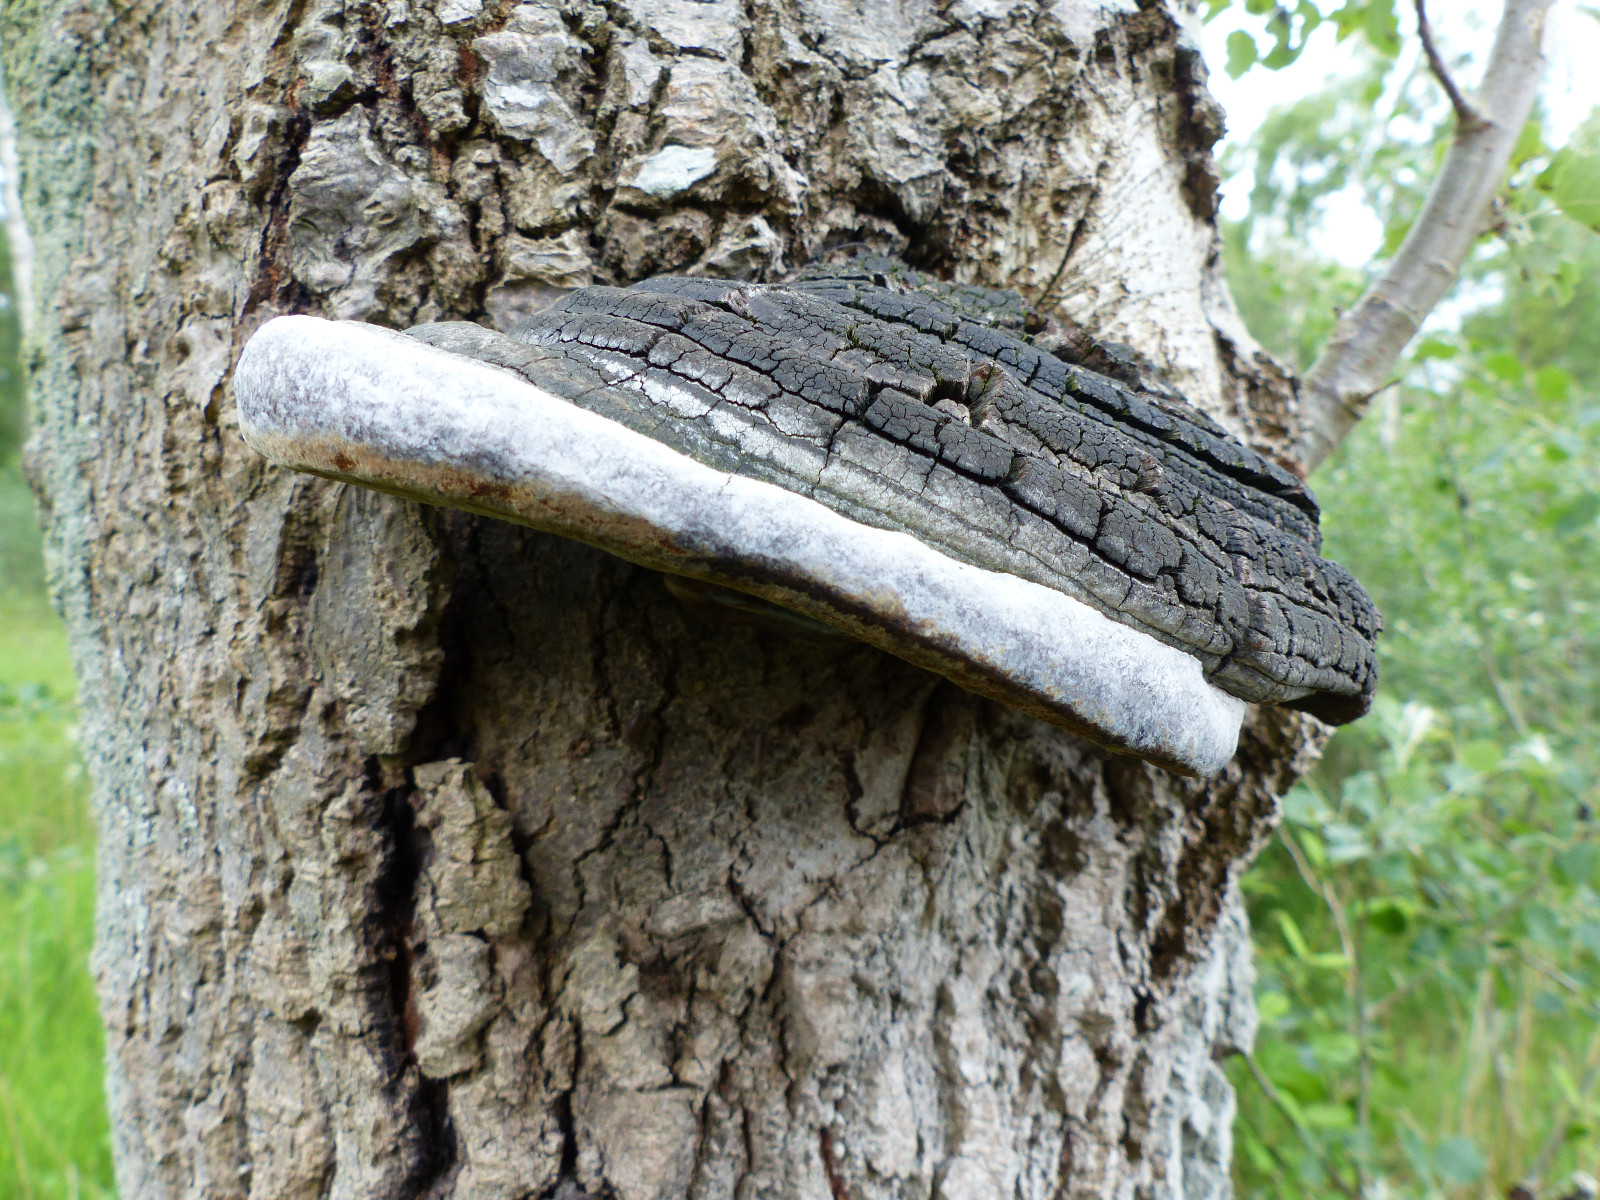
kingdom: Fungi
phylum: Basidiomycota
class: Agaricomycetes
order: Hymenochaetales
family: Hymenochaetaceae
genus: Phellinus
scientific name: Phellinus populicola
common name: poppel-ildporesvamp
